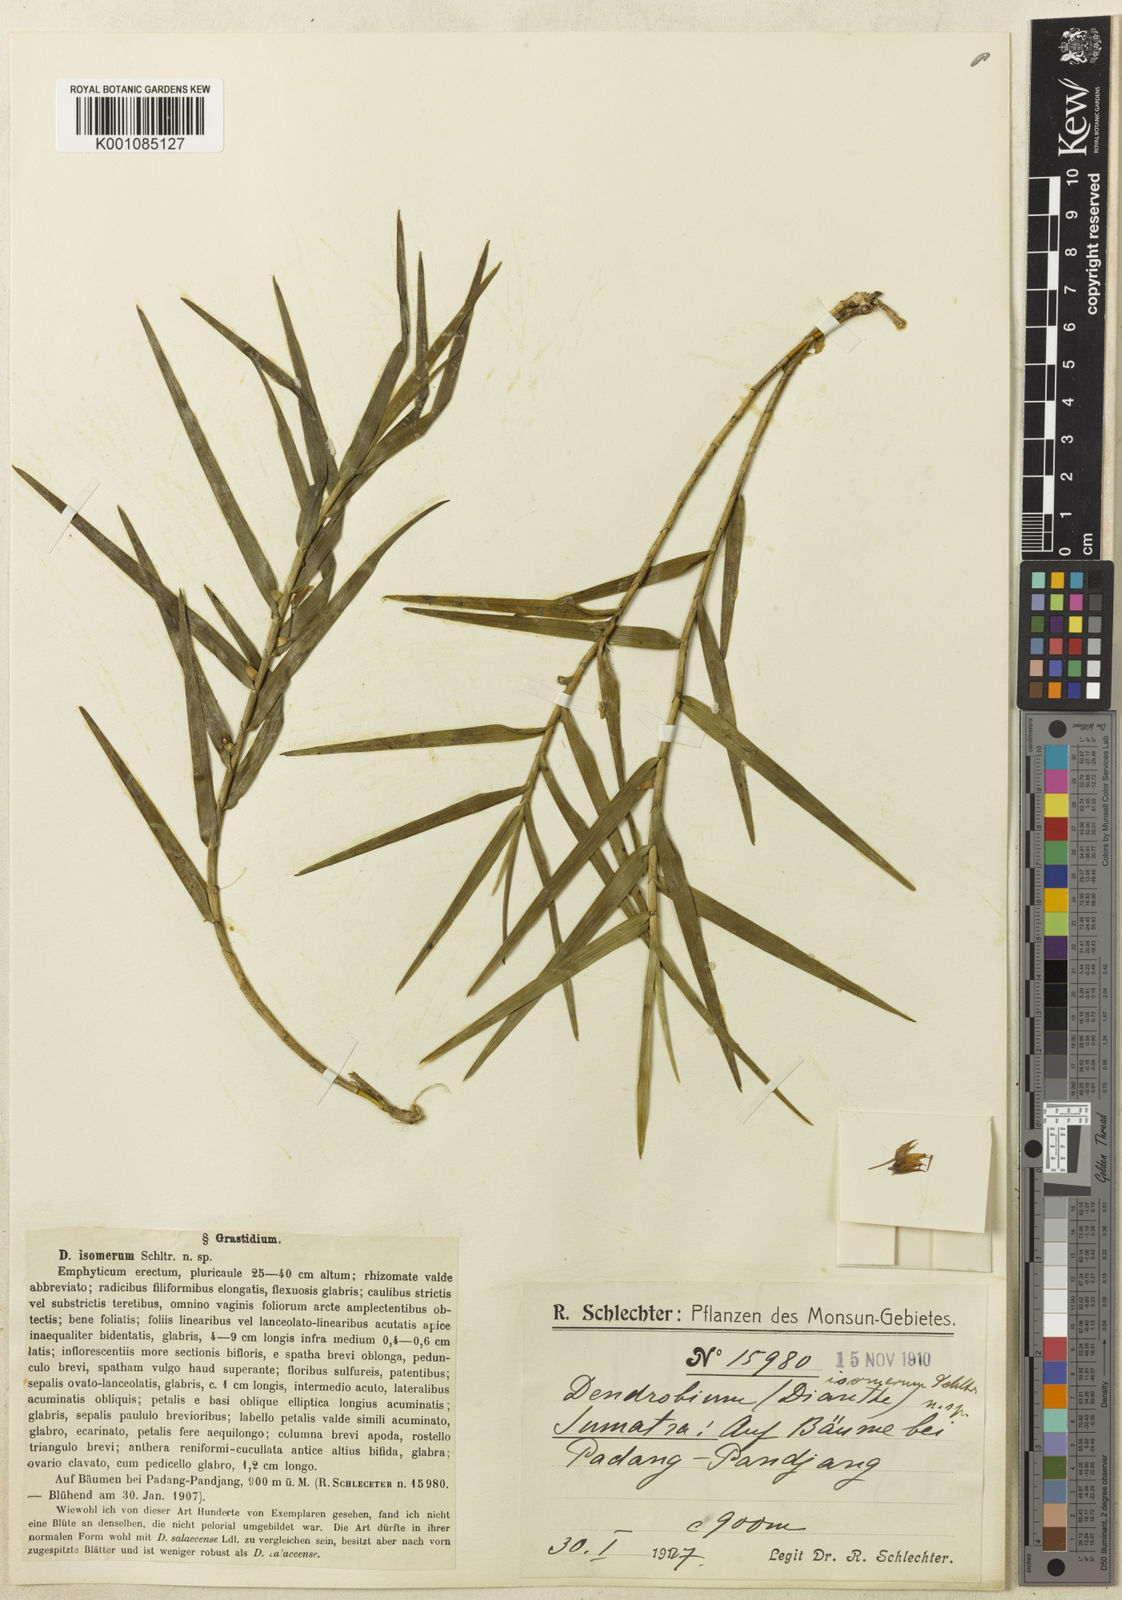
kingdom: Plantae
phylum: Tracheophyta
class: Liliopsida
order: Asparagales
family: Orchidaceae
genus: Dendrobium
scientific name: Dendrobium indragiriense
